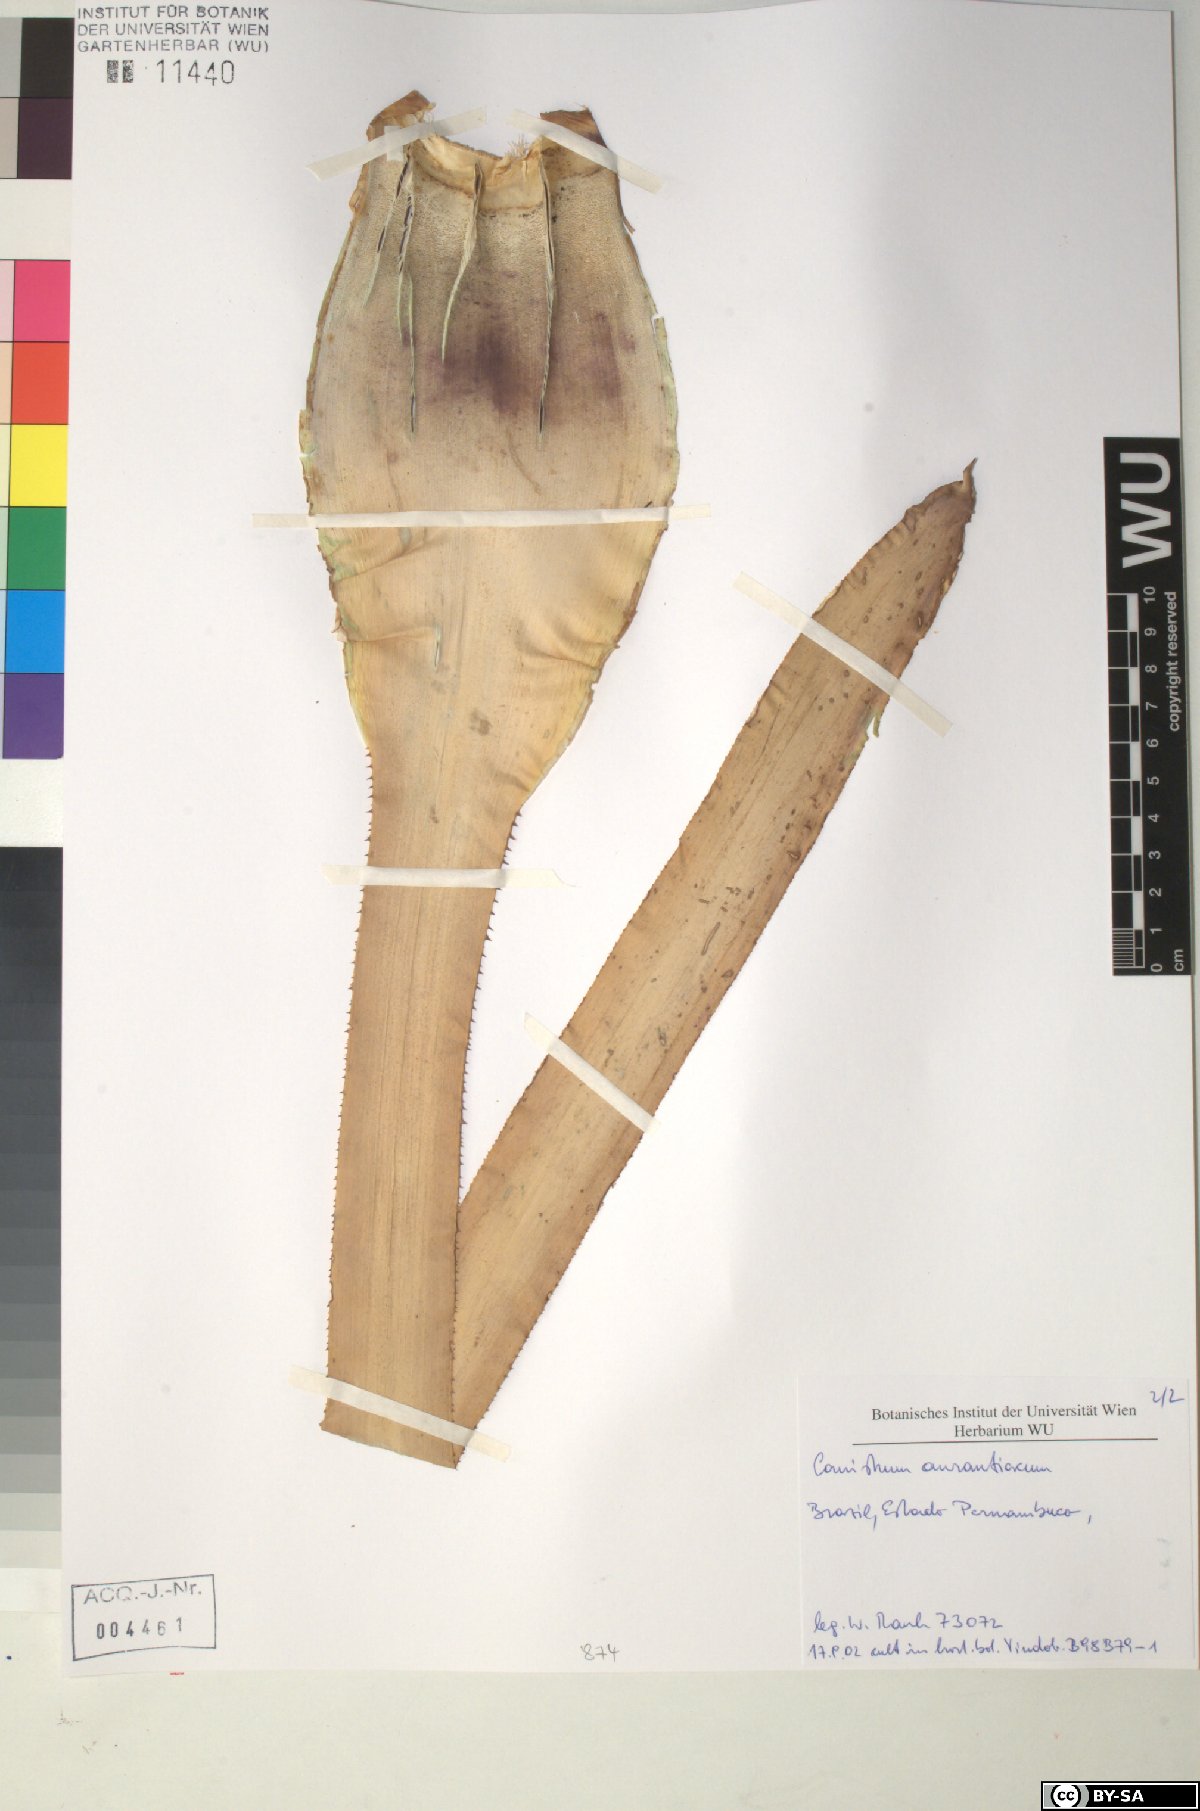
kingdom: Plantae
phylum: Tracheophyta
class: Liliopsida
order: Poales
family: Bromeliaceae
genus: Canistrum
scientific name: Canistrum aurantiacum
